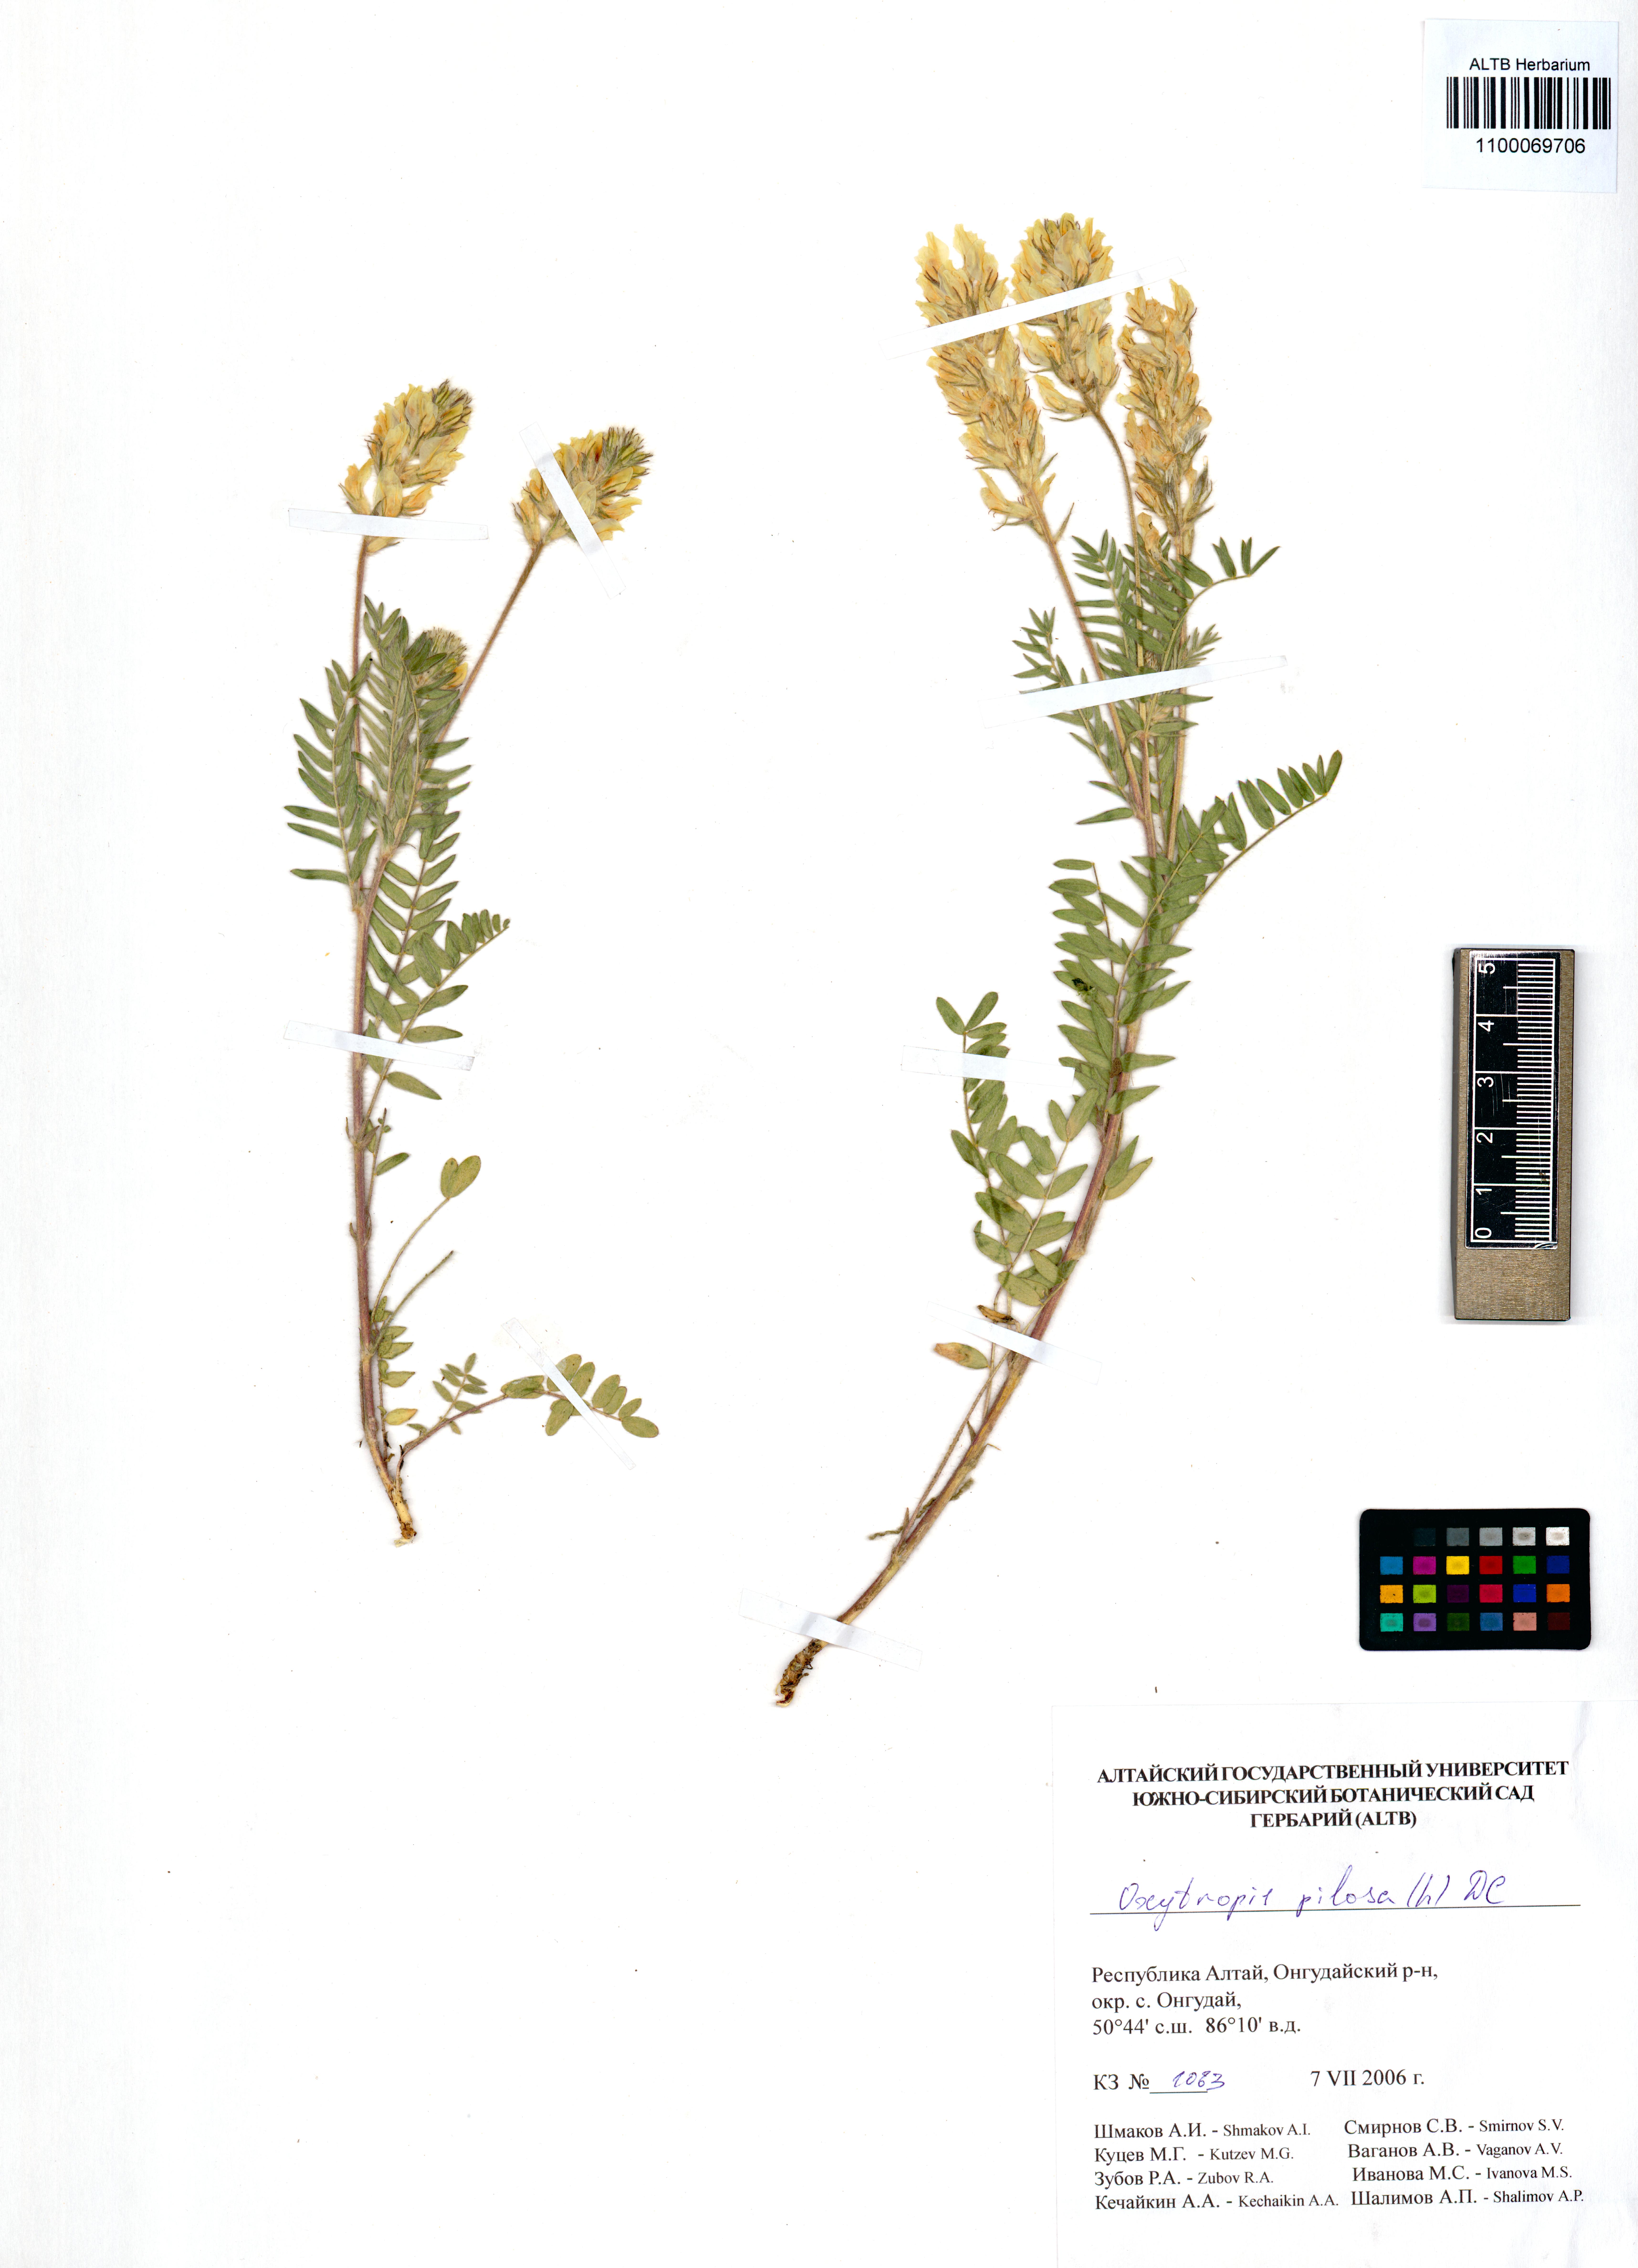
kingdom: Plantae
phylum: Tracheophyta
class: Magnoliopsida
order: Fabales
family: Fabaceae
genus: Oxytropis
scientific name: Oxytropis pilosa
